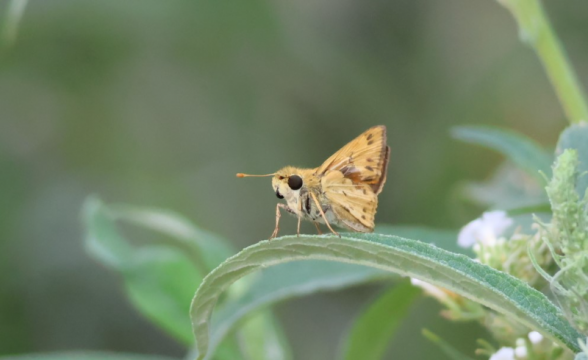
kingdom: Animalia
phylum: Arthropoda
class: Insecta
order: Lepidoptera
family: Hesperiidae
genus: Hylephila
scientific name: Hylephila phyleus
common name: Fiery Skipper
